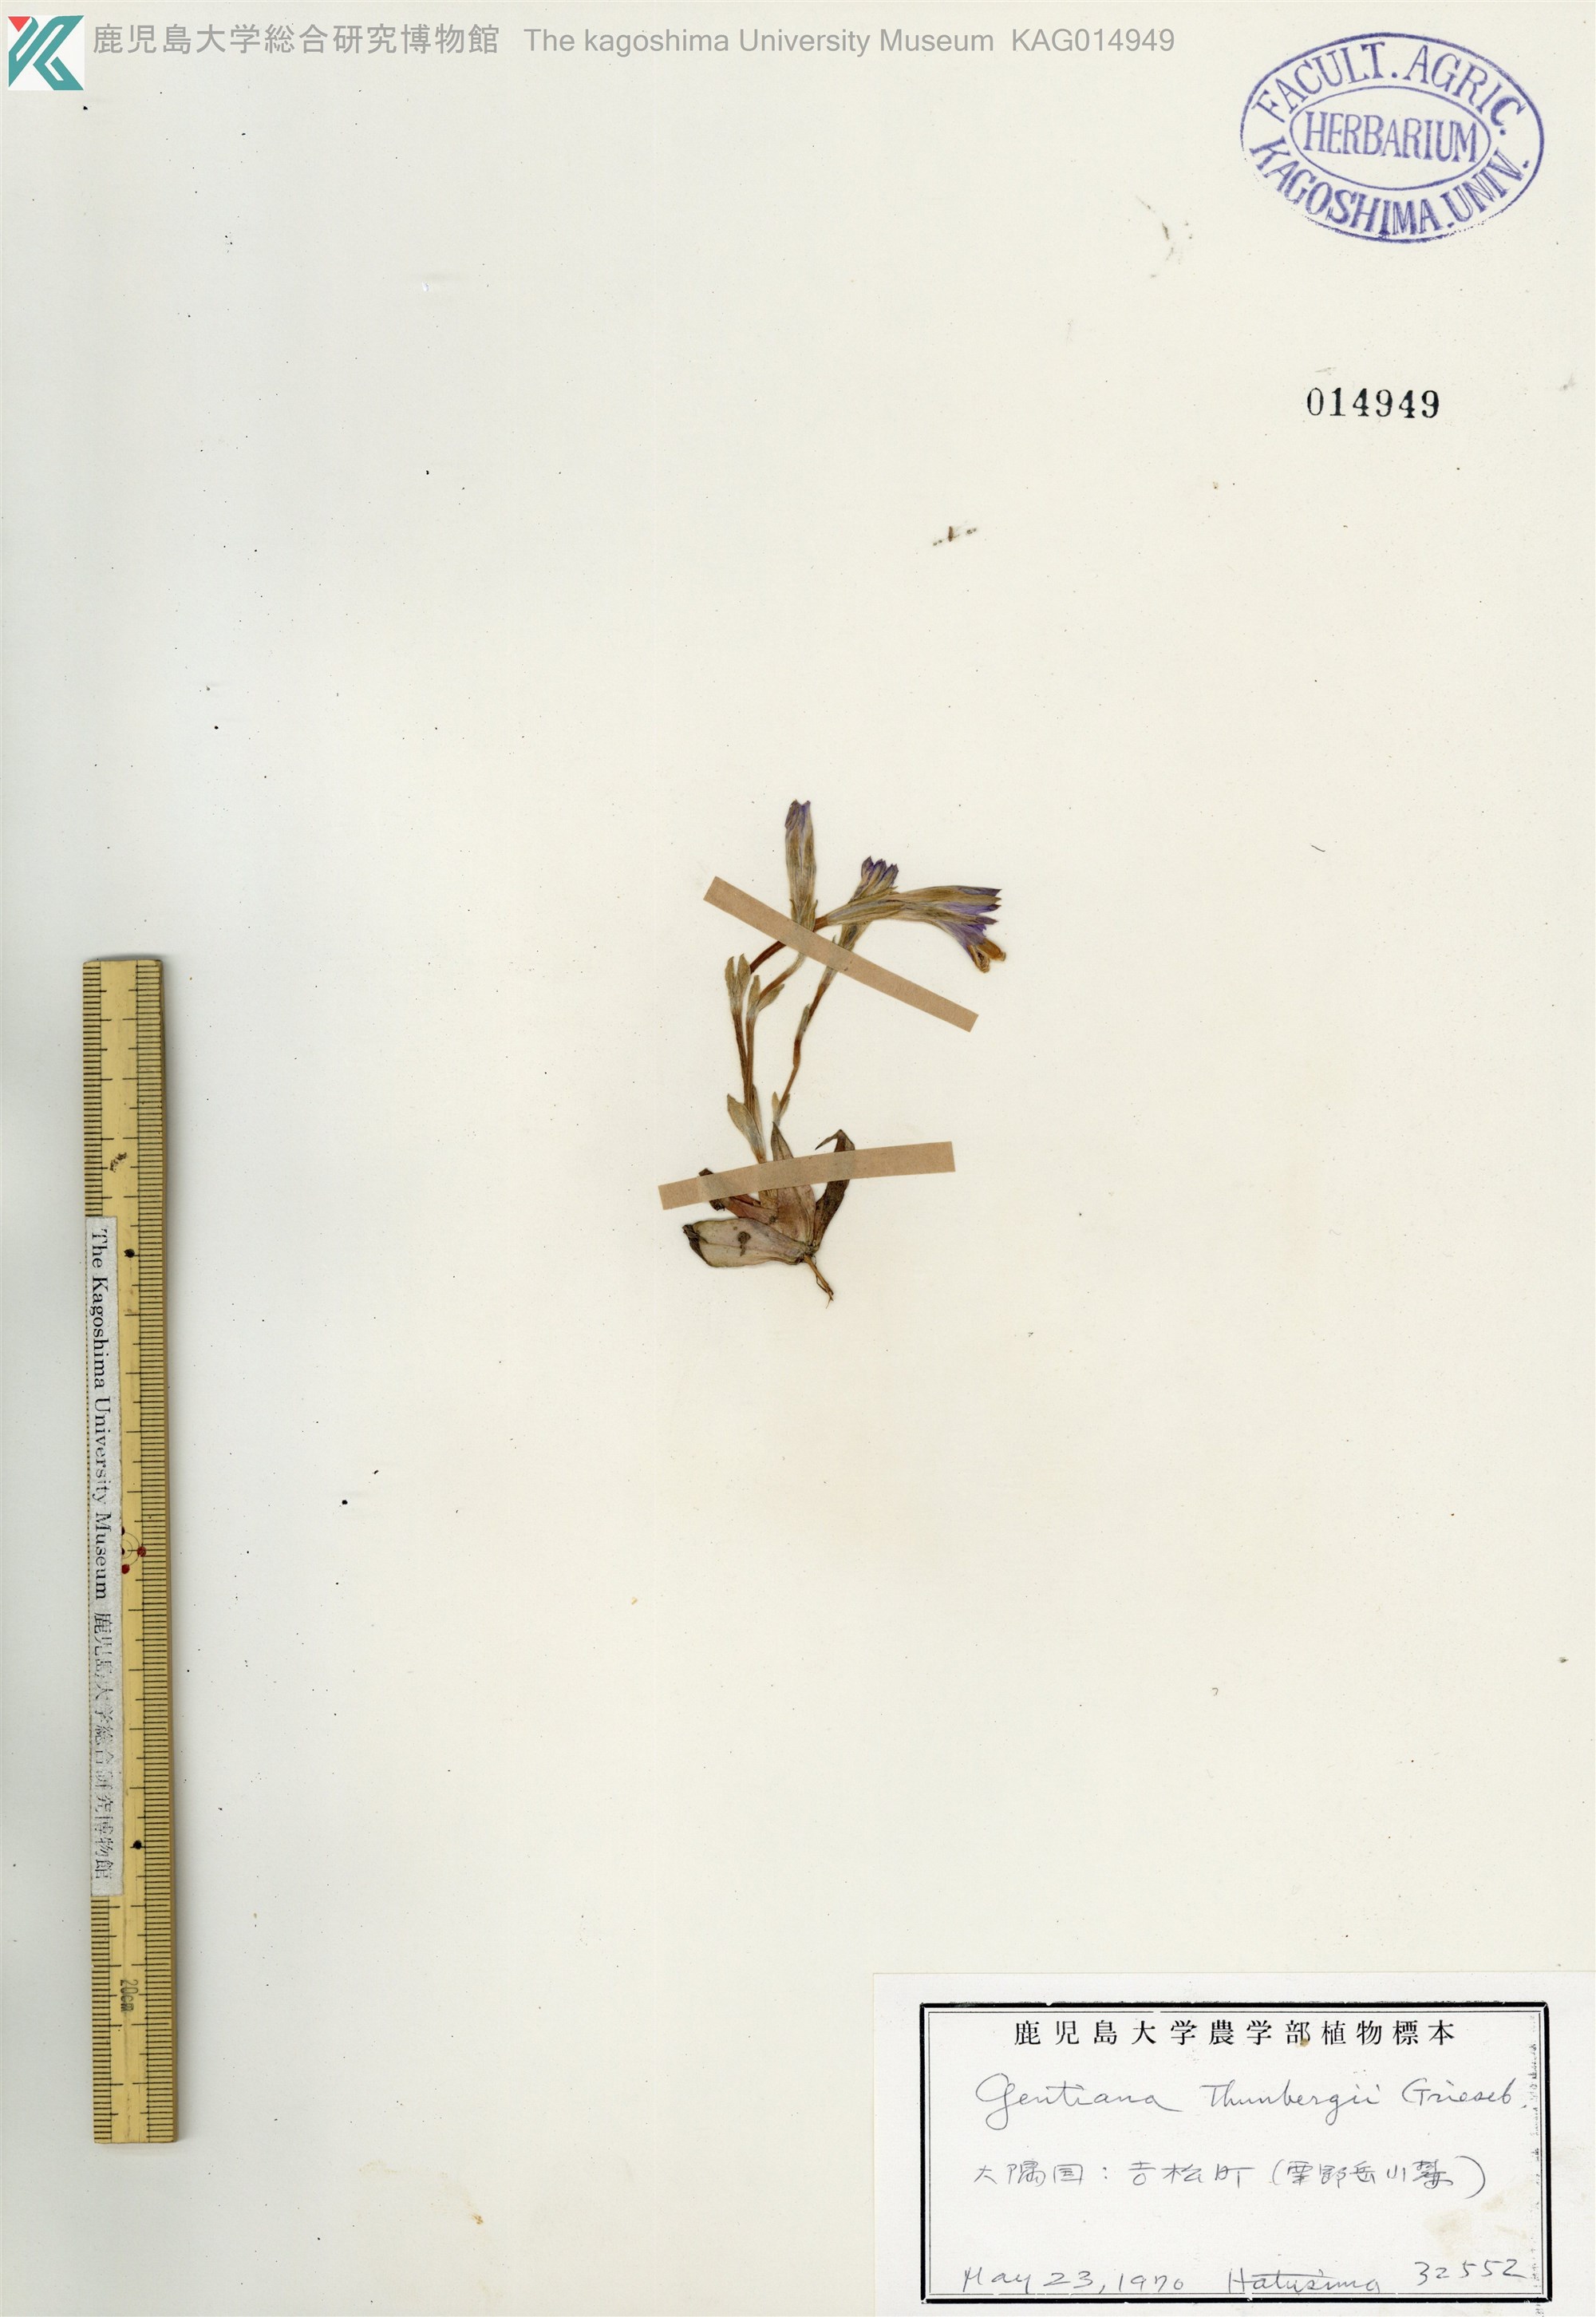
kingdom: Plantae
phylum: Tracheophyta
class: Magnoliopsida
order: Gentianales
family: Gentianaceae
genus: Gentiana
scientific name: Gentiana thunbergii
